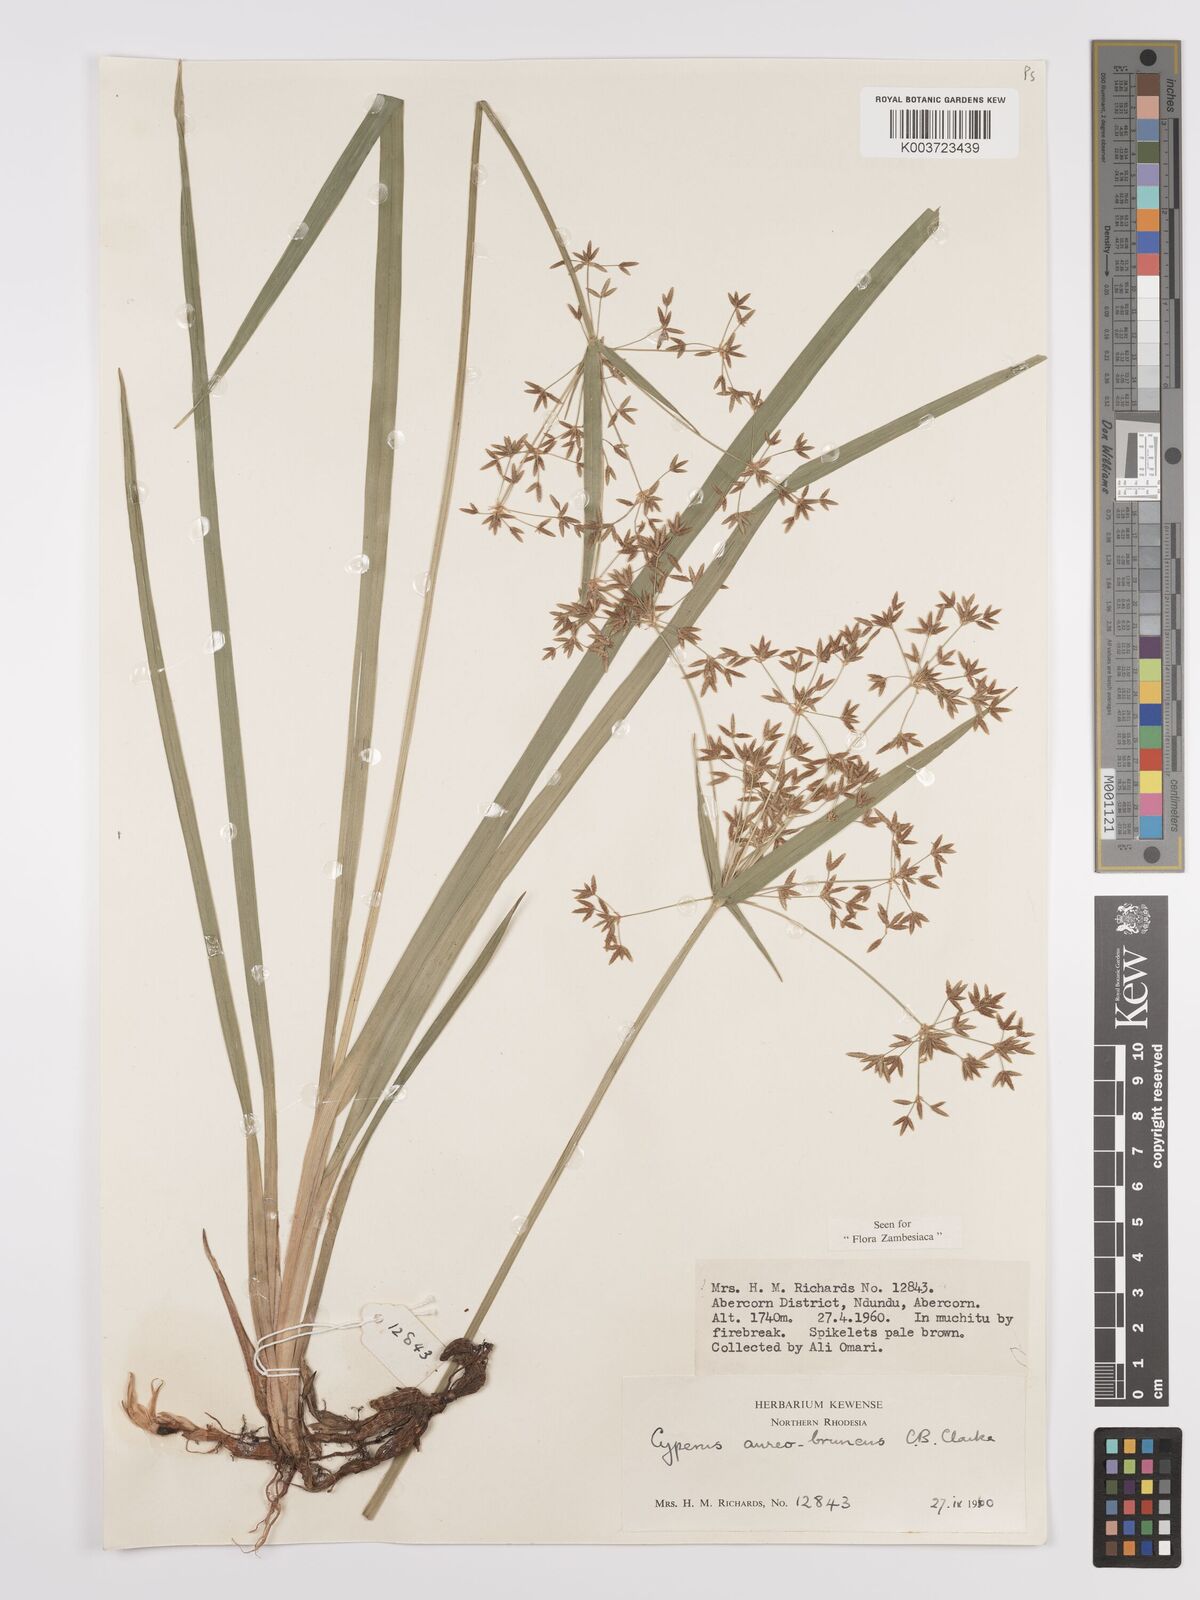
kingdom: Plantae
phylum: Tracheophyta
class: Liliopsida
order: Poales
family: Cyperaceae
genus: Cyperus
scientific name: Cyperus aureobrunneus
